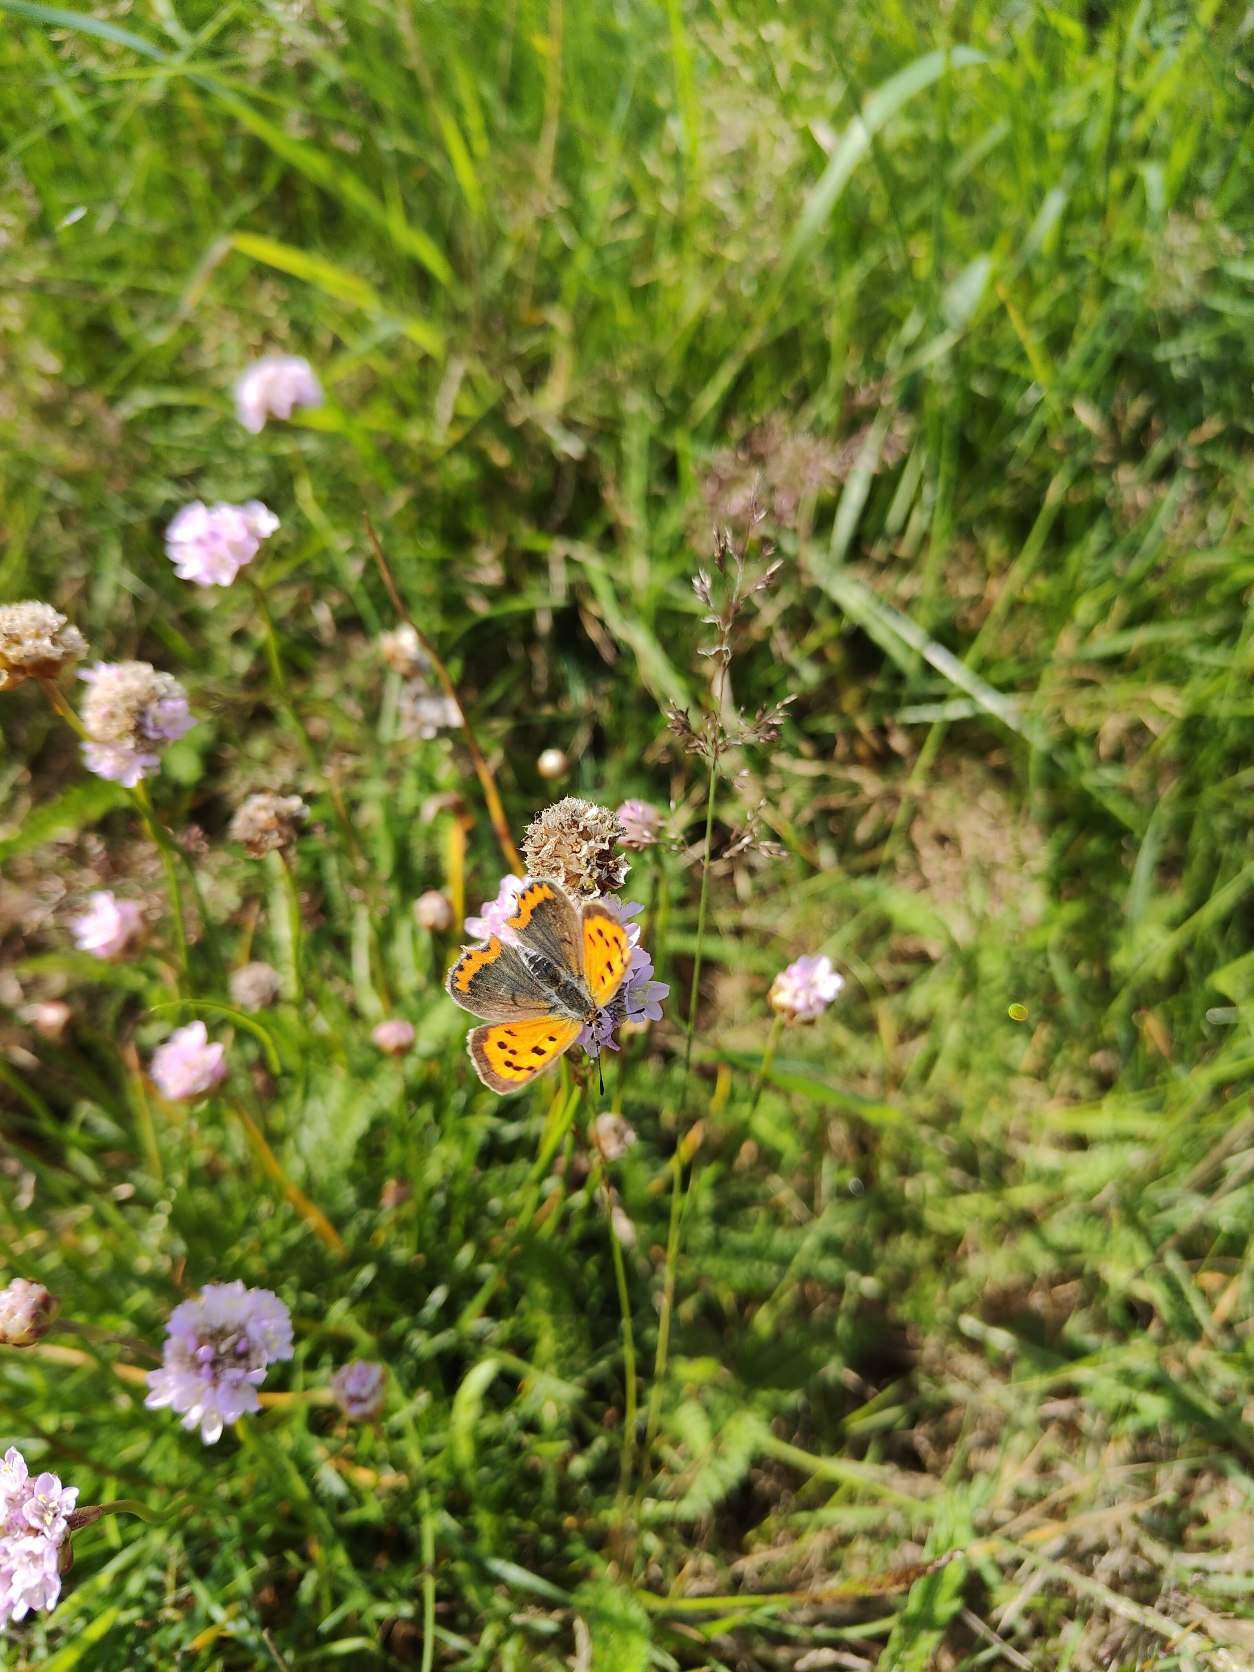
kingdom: Animalia
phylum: Arthropoda
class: Insecta
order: Lepidoptera
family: Lycaenidae
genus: Lycaena
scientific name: Lycaena phlaeas
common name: Lille ildfugl
